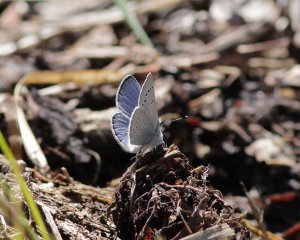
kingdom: Animalia
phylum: Arthropoda
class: Insecta
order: Lepidoptera
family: Lycaenidae
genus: Glaucopsyche
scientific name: Glaucopsyche lygdamus
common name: Silvery Blue
